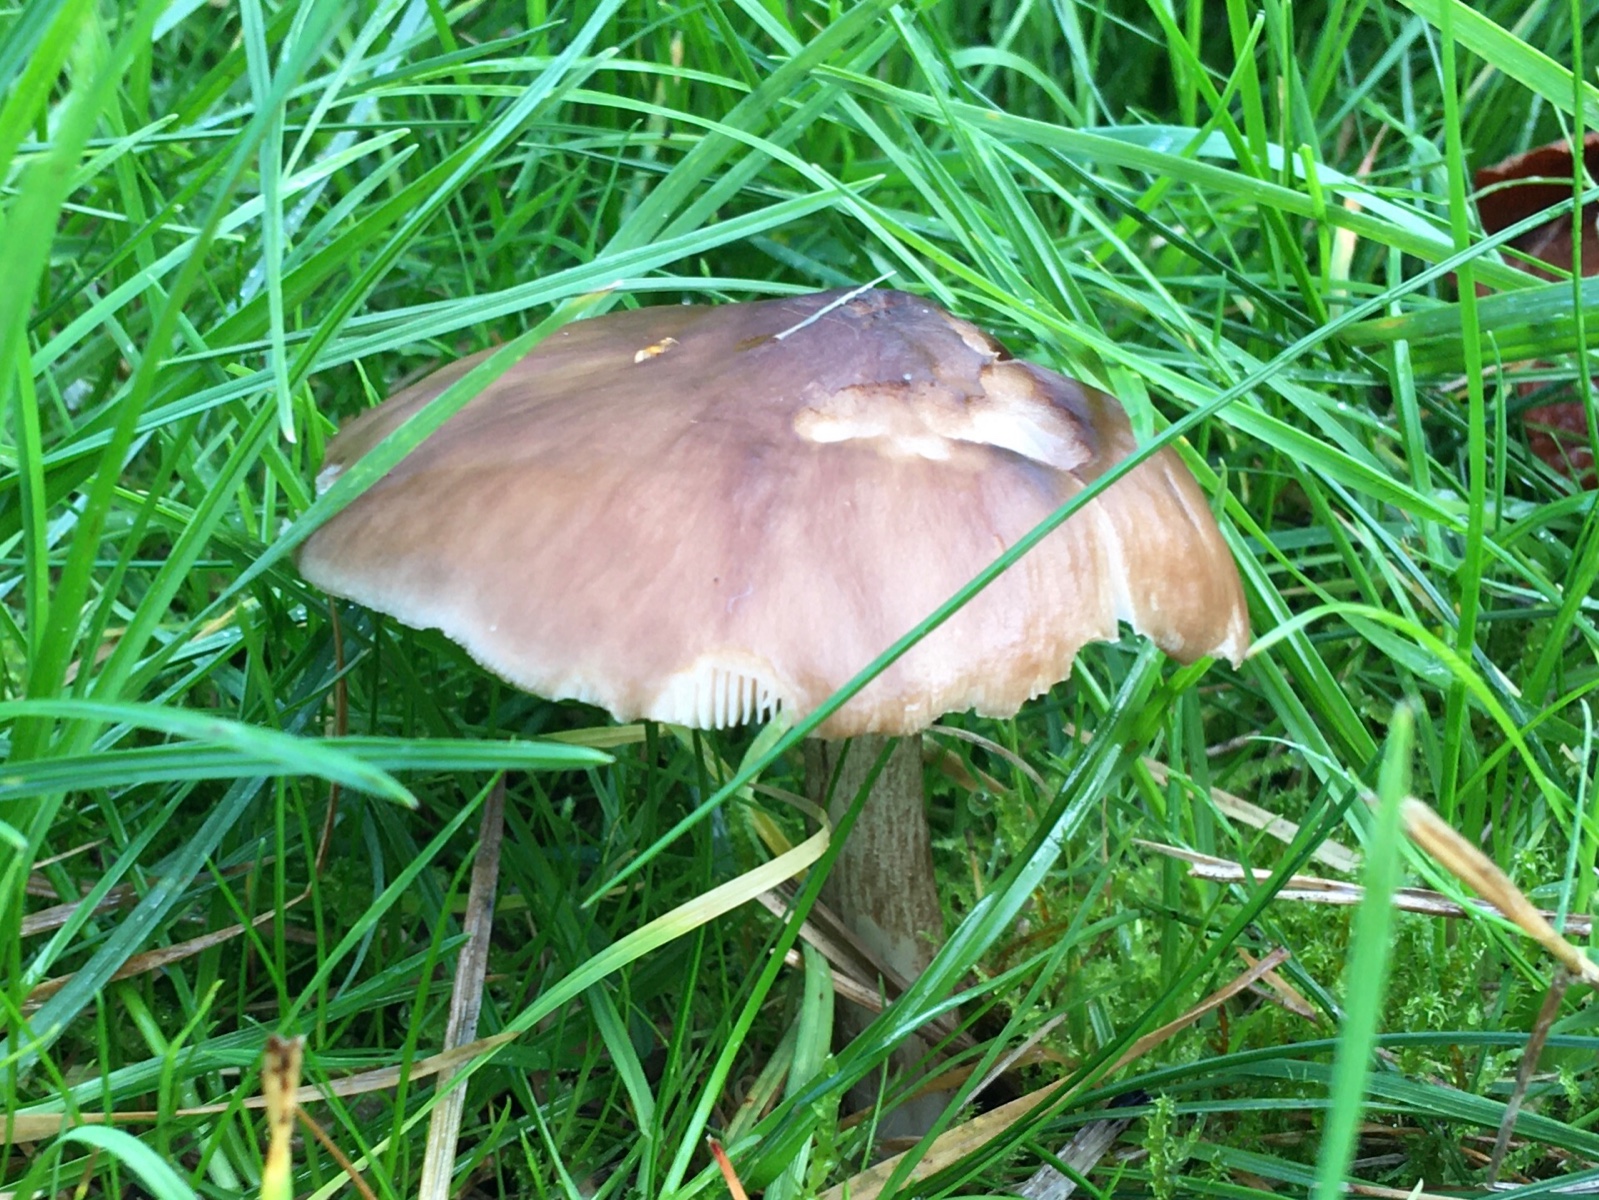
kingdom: Fungi
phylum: Basidiomycota
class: Agaricomycetes
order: Agaricales
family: Pluteaceae
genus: Pluteus
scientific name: Pluteus cervinus
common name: sodfarvet skærmhat
